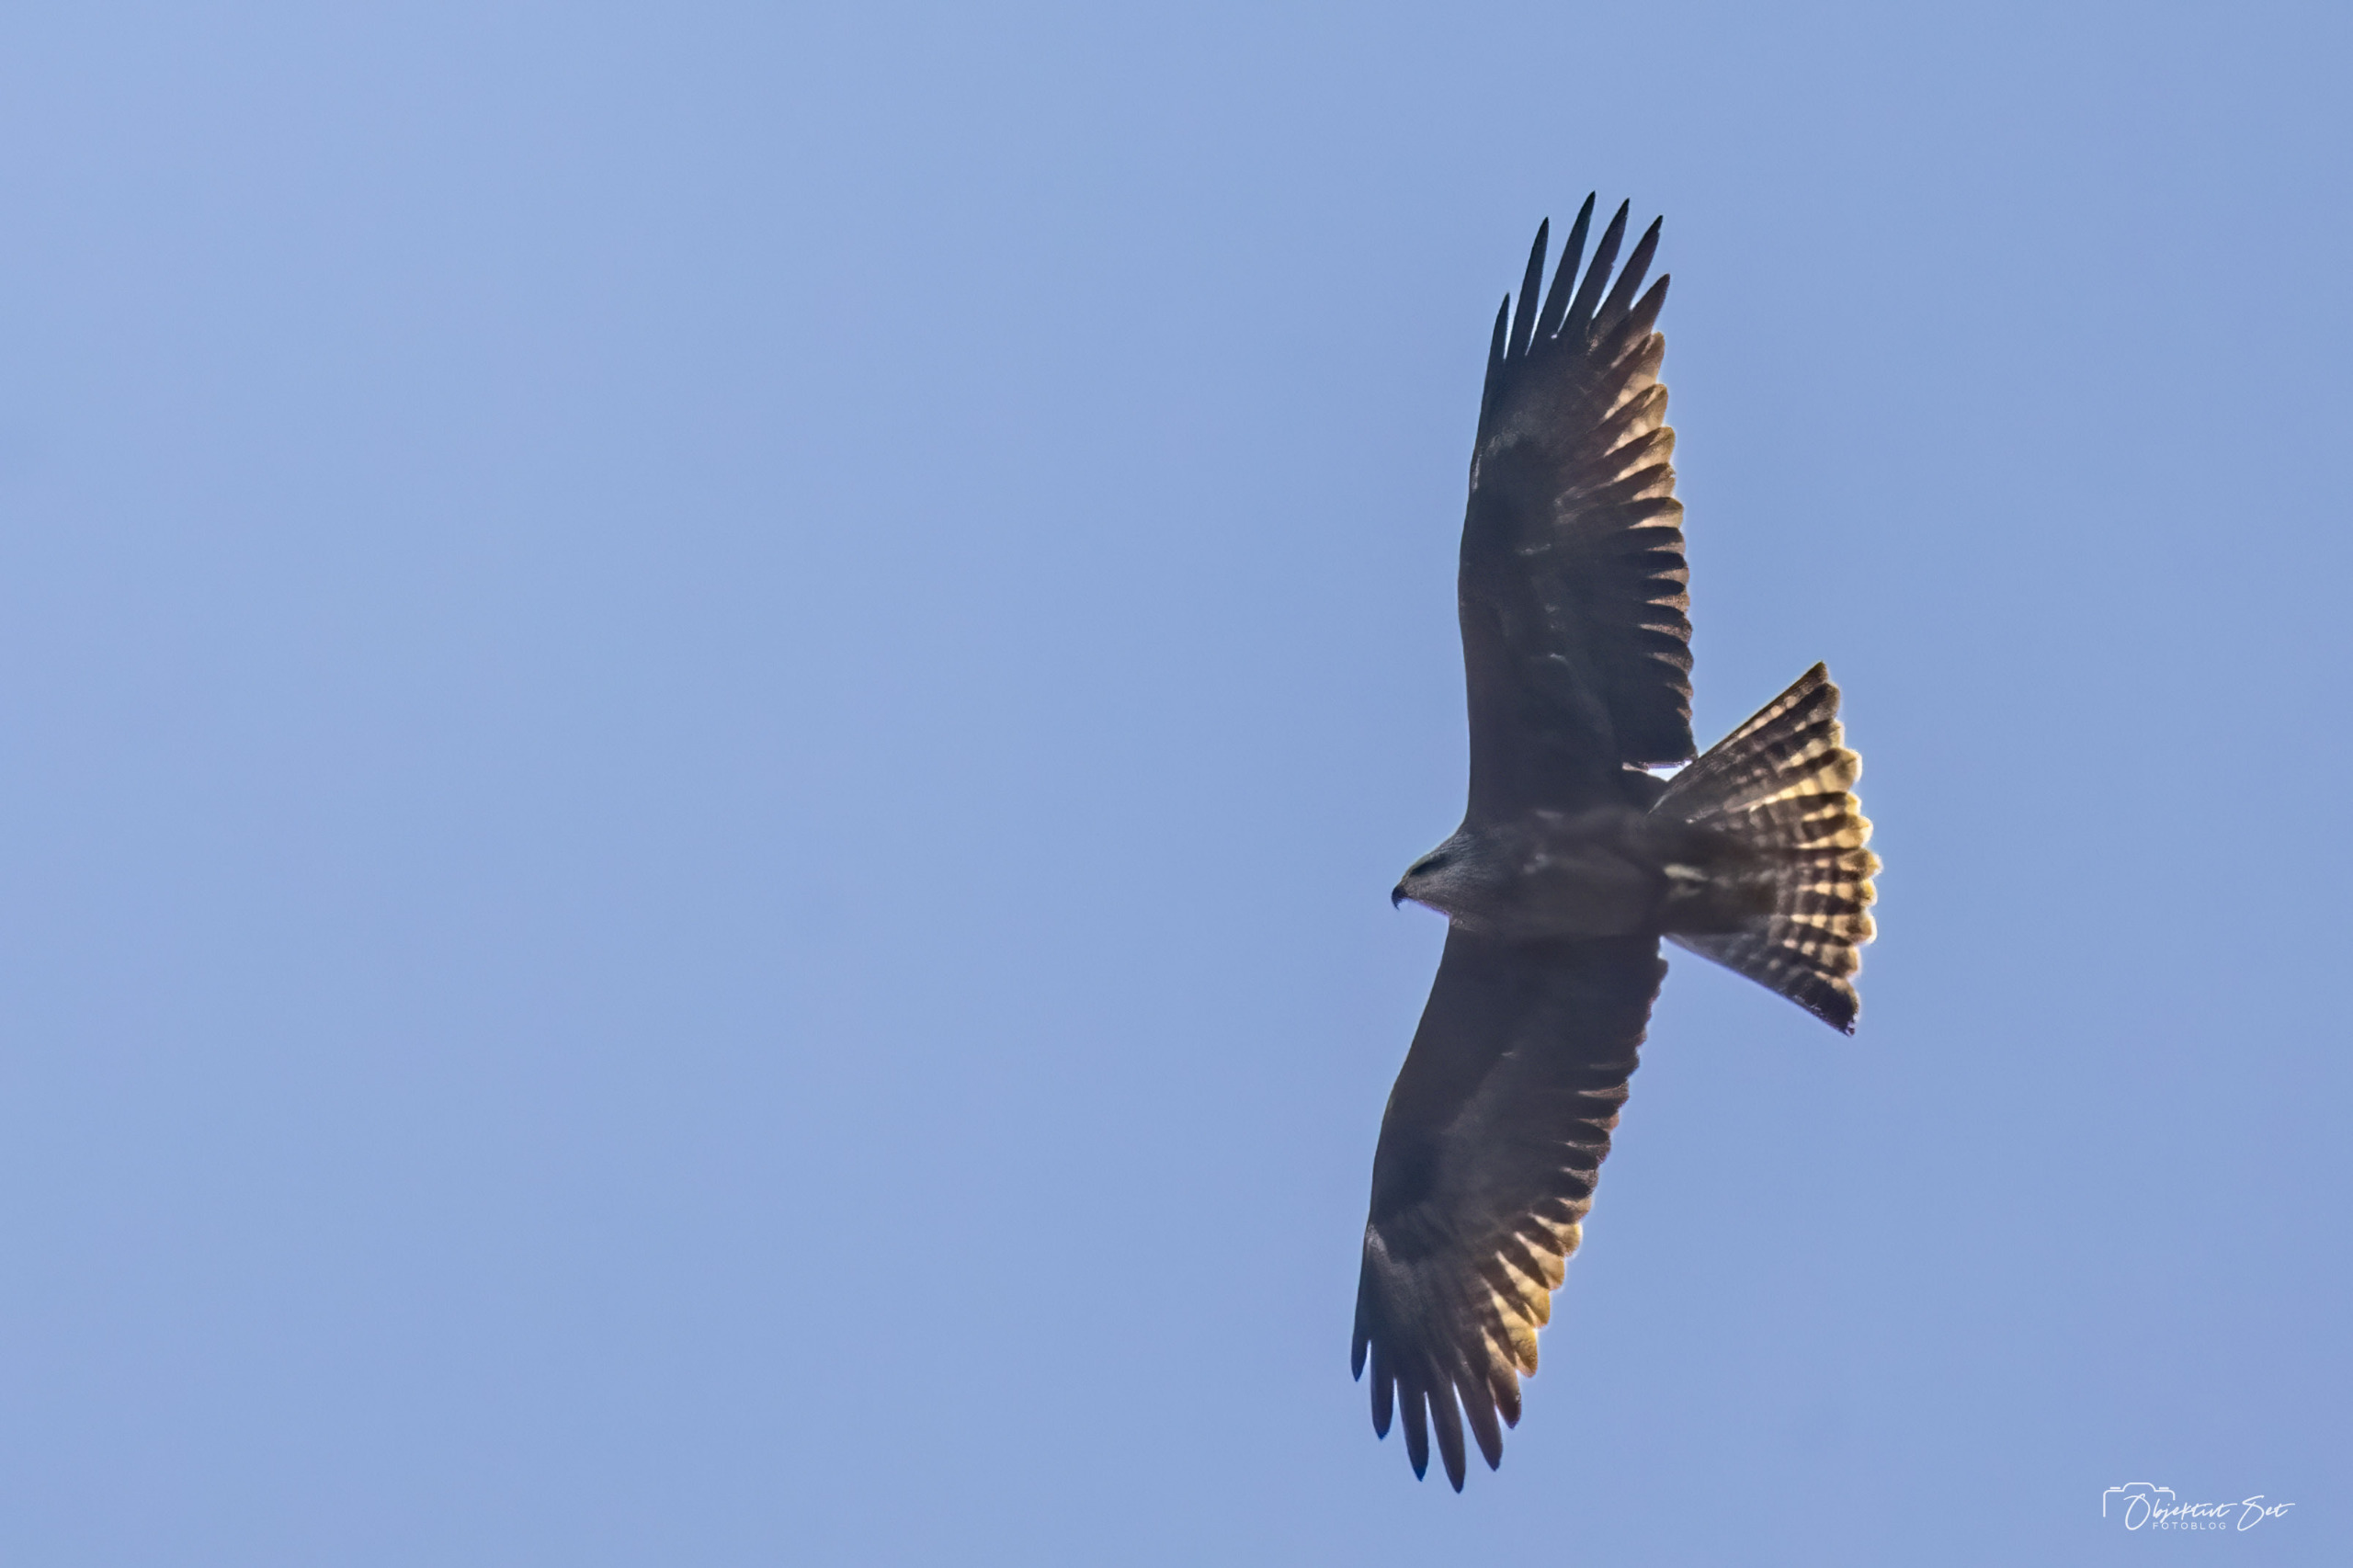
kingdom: Animalia
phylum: Chordata
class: Aves
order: Accipitriformes
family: Accipitridae
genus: Milvus
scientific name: Milvus migrans
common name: Sort glente
